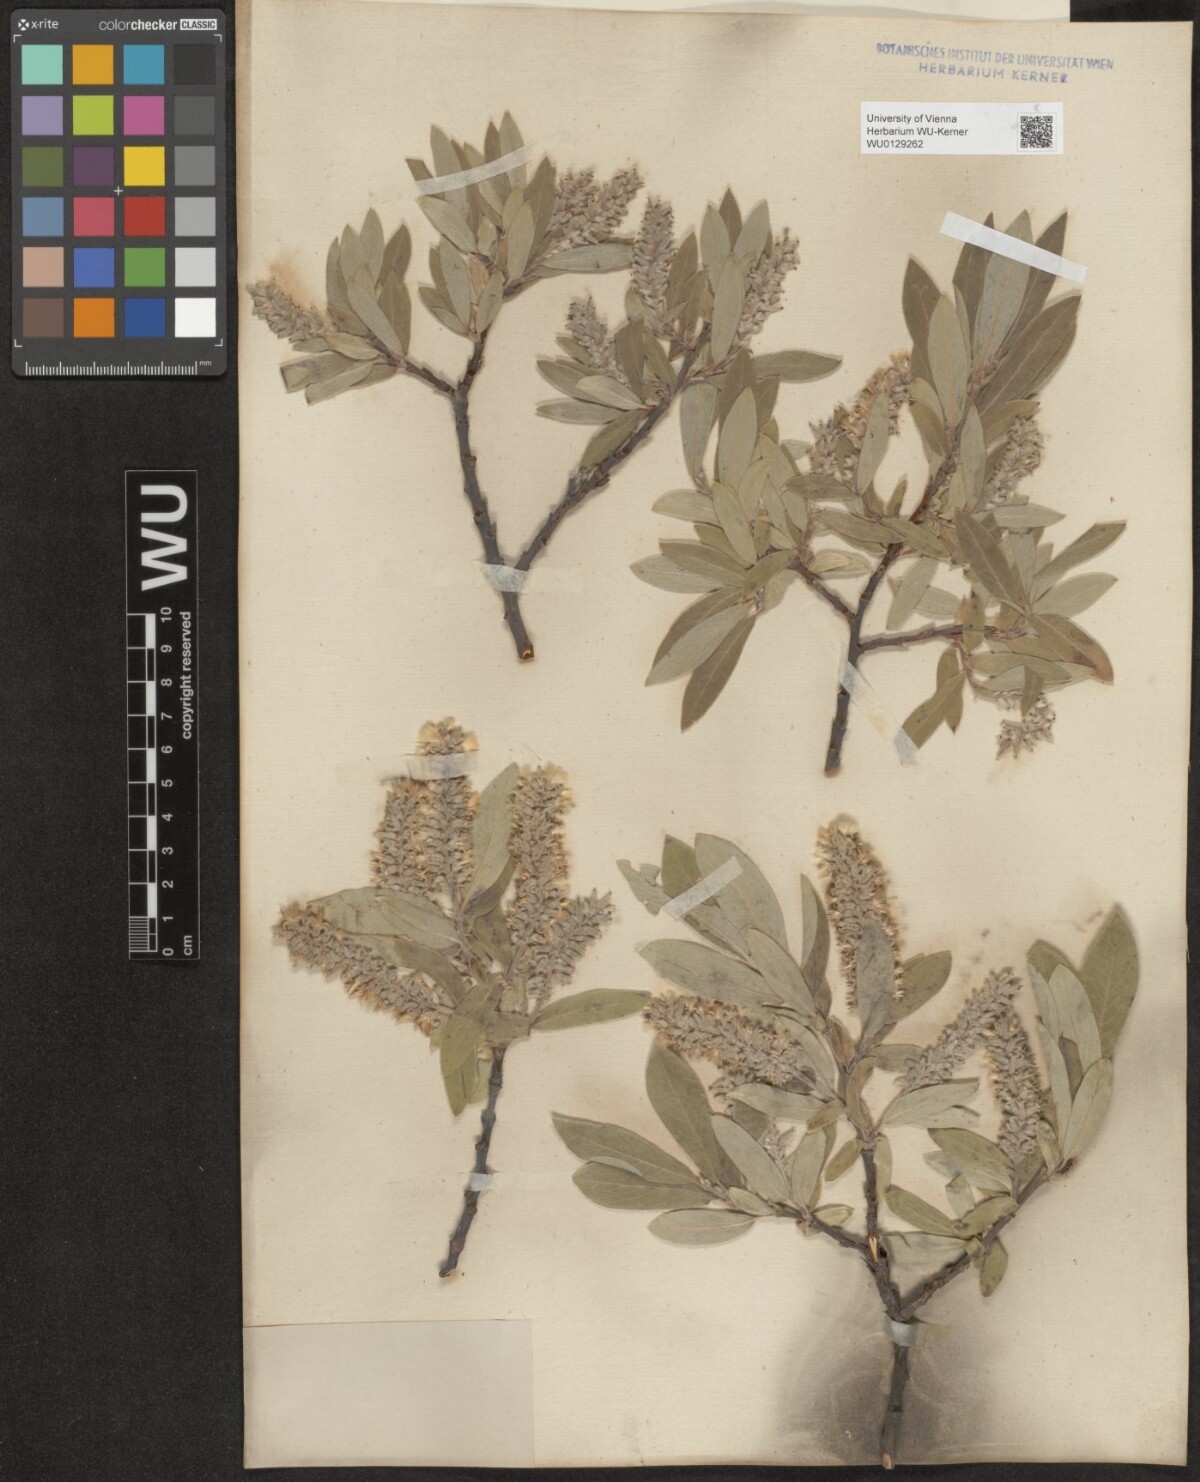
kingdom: Plantae
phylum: Tracheophyta
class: Magnoliopsida
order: Malpighiales
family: Salicaceae
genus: Salix
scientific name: Salix glauca
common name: Glaucous willow
